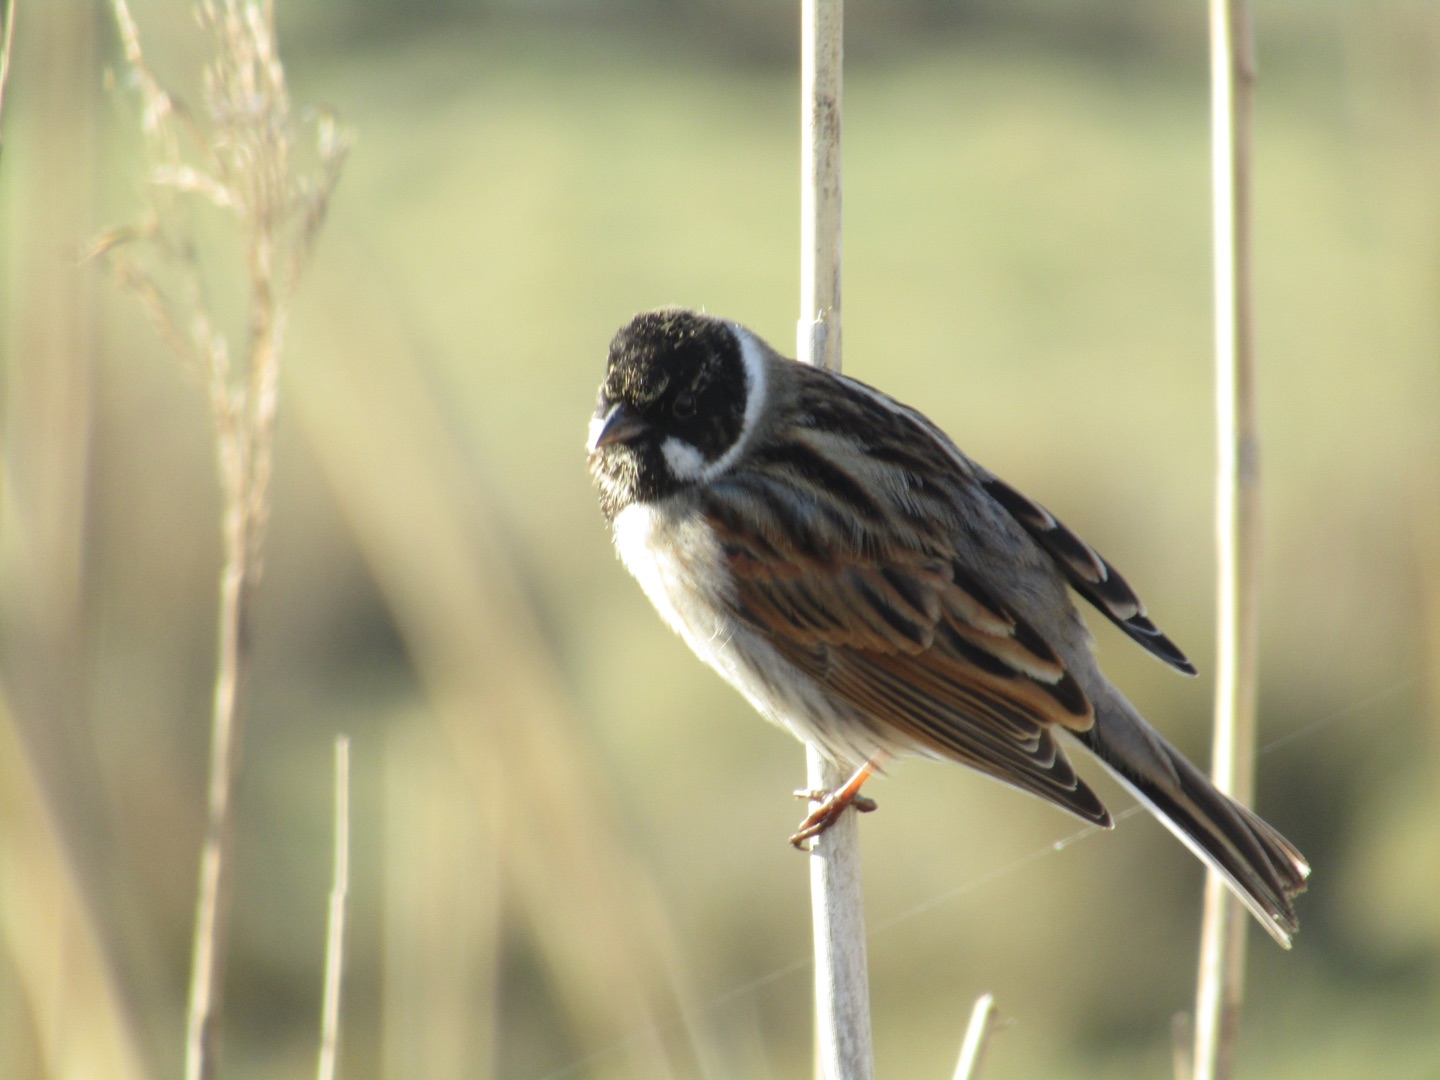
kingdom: Animalia
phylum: Chordata
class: Aves
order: Passeriformes
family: Emberizidae
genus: Emberiza
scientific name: Emberiza schoeniclus
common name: Rørspurv
